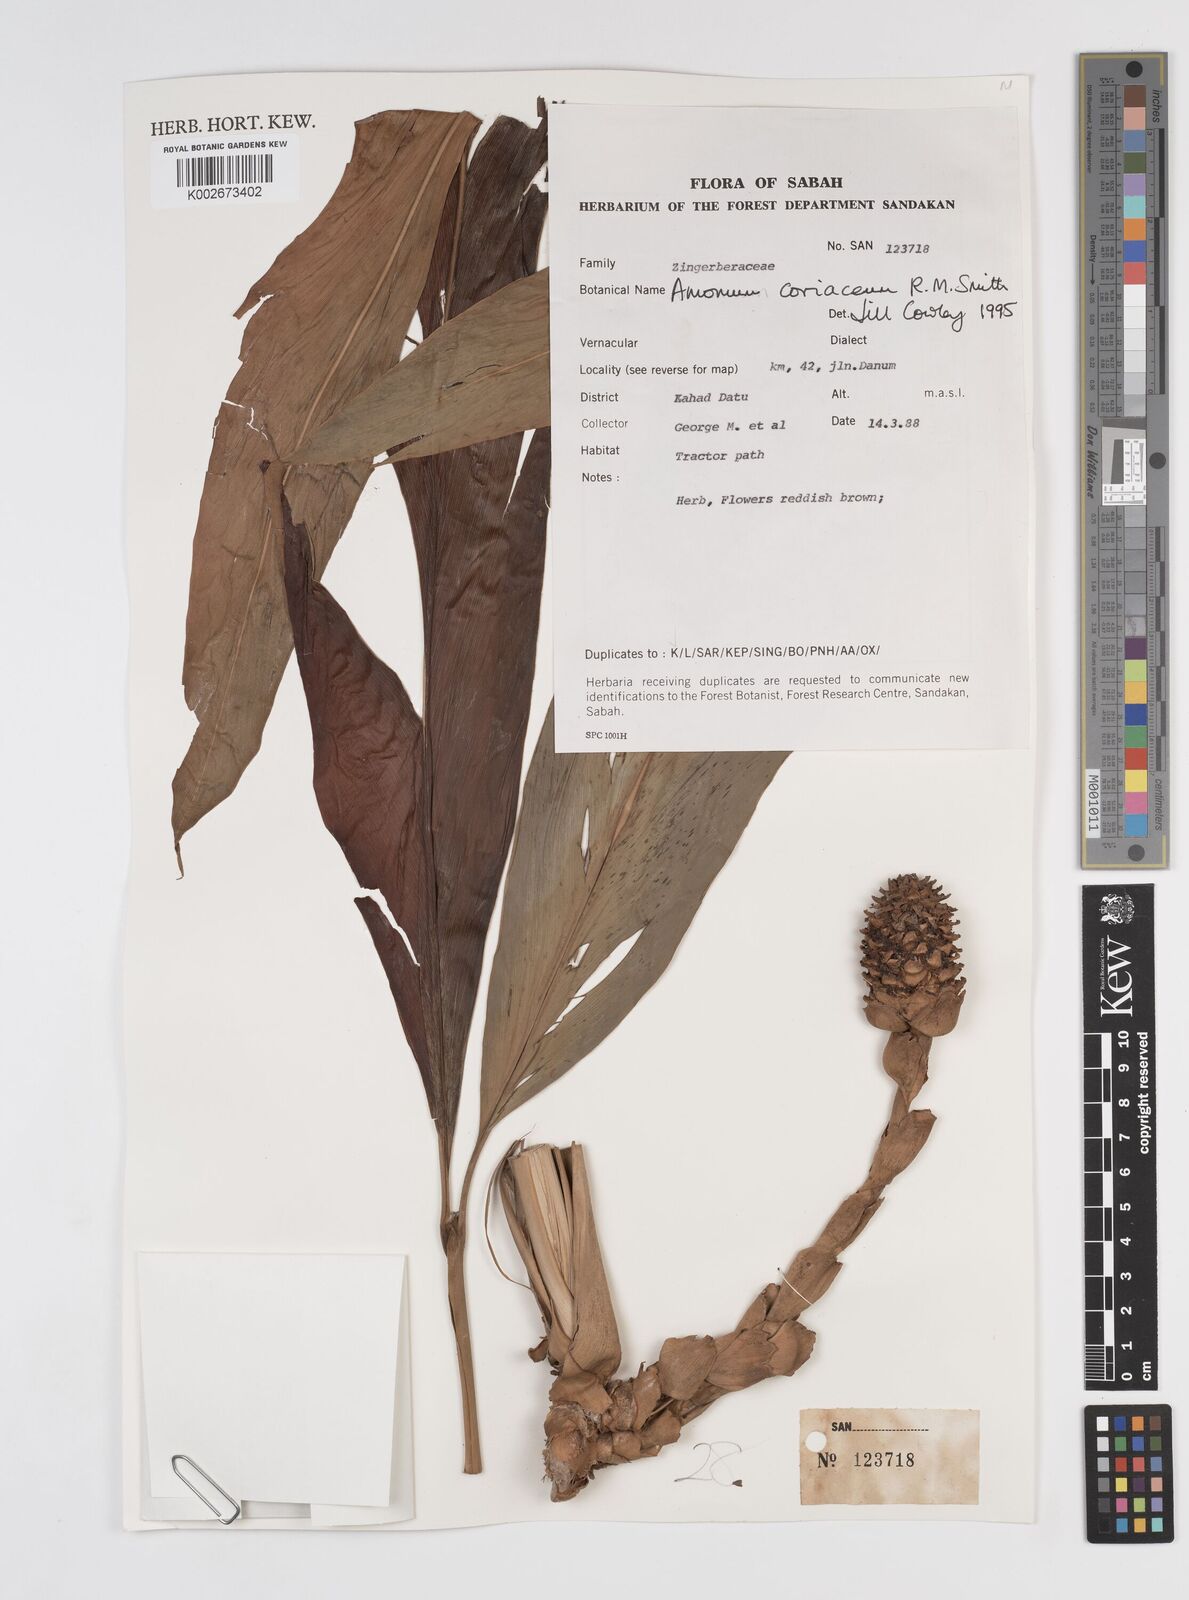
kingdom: Plantae
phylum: Tracheophyta
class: Liliopsida
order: Zingiberales
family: Zingiberaceae
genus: Conamomum
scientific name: Conamomum cylindrostachys
